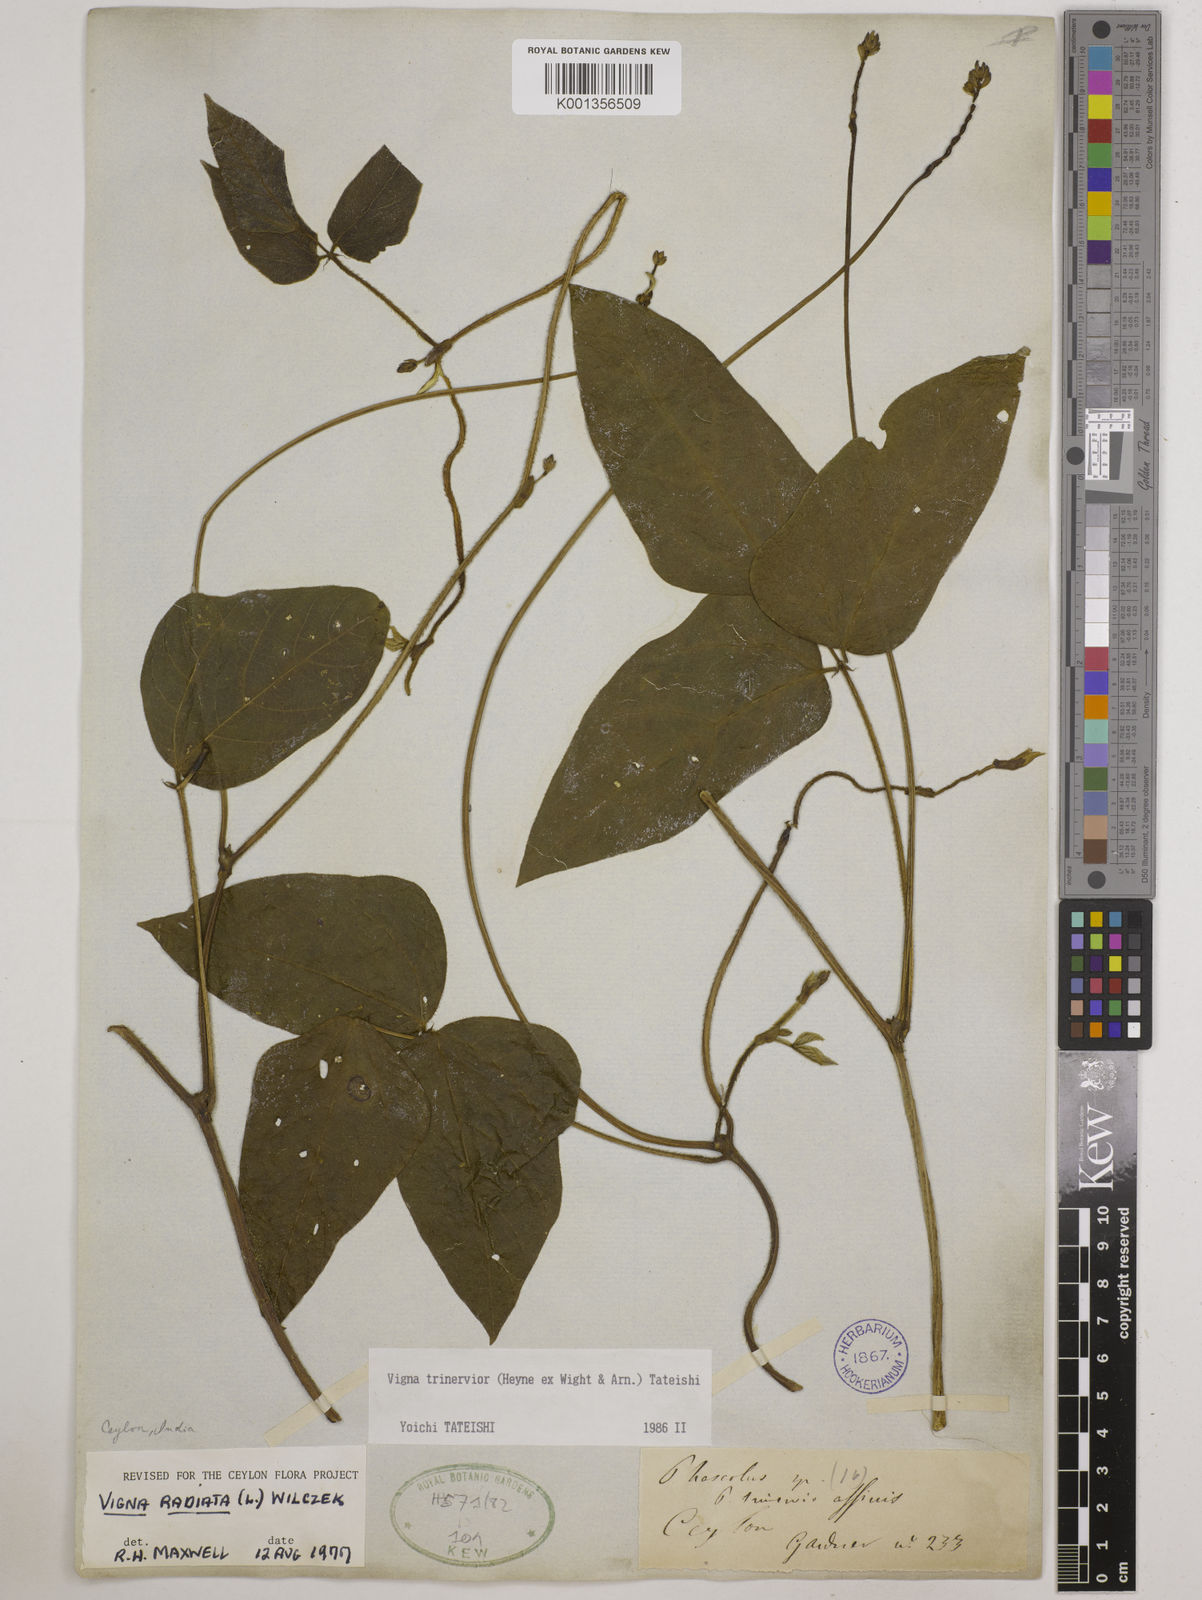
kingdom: Plantae
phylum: Tracheophyta
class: Magnoliopsida
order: Fabales
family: Fabaceae
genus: Vigna
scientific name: Vigna radiata
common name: Mung-bean
